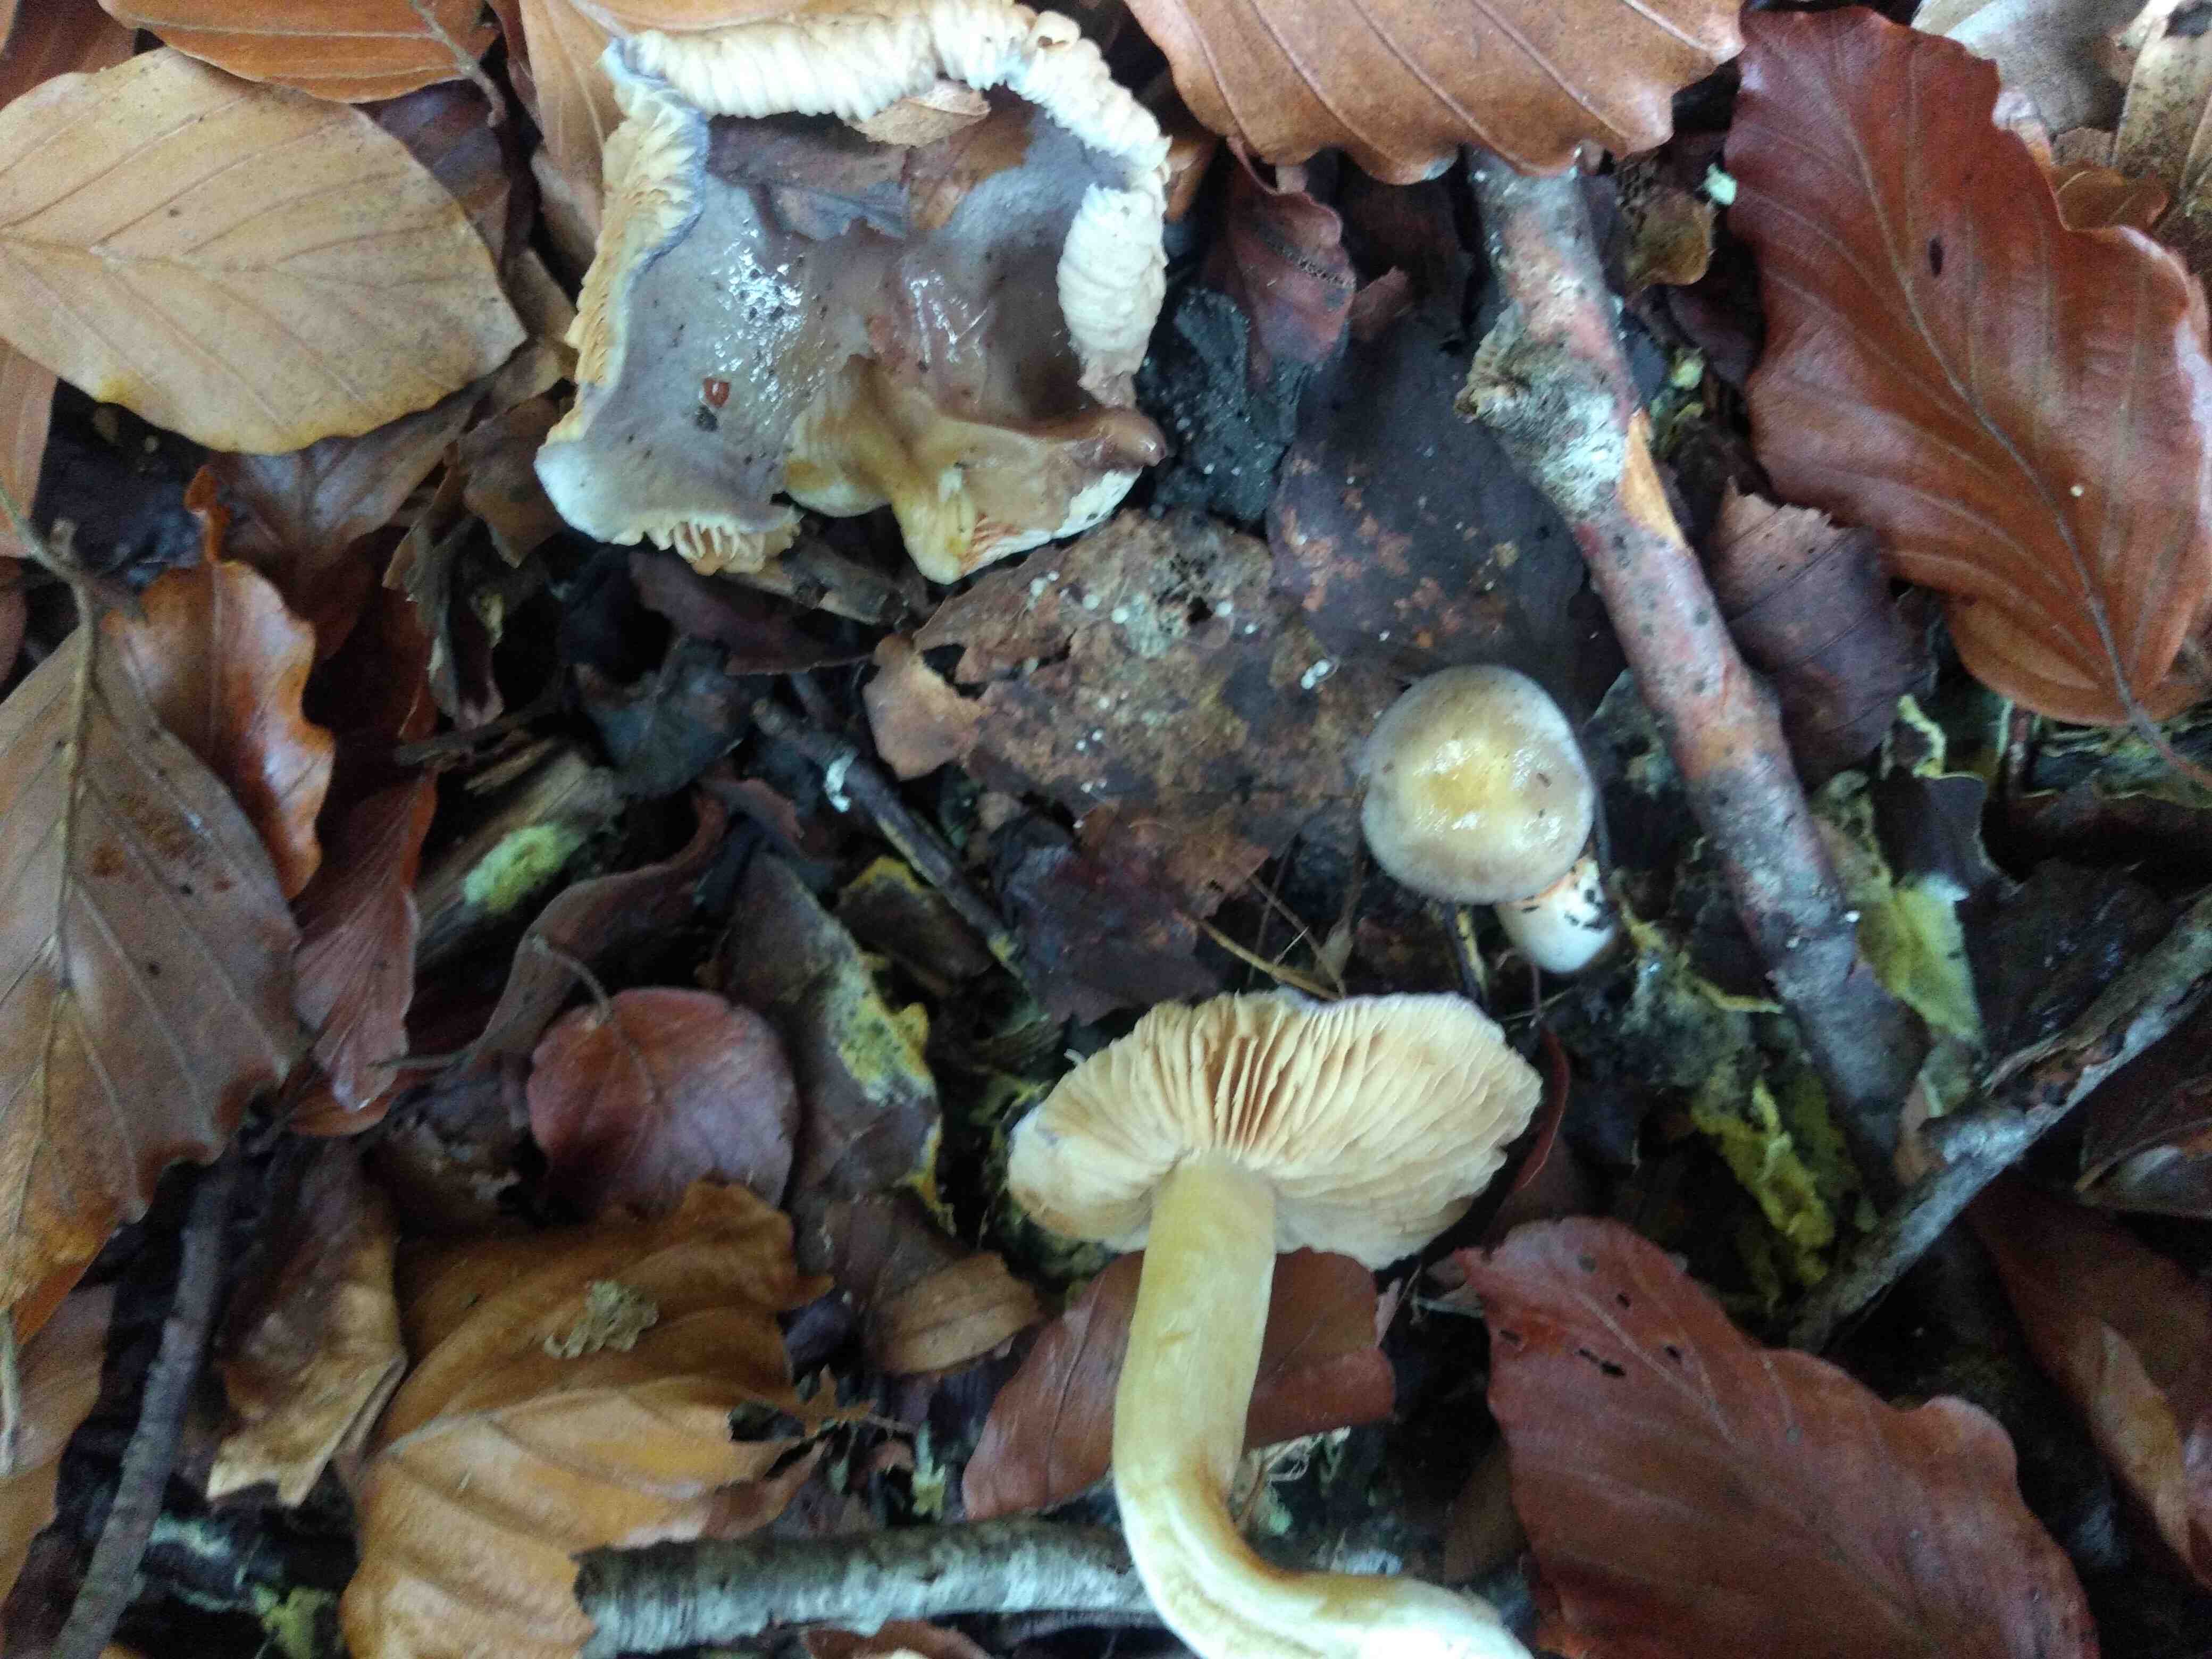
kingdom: Fungi
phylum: Basidiomycota
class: Agaricomycetes
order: Agaricales
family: Cortinariaceae
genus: Thaxterogaster
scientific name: Thaxterogaster croceocoeruleus
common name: blågullig slørhat
